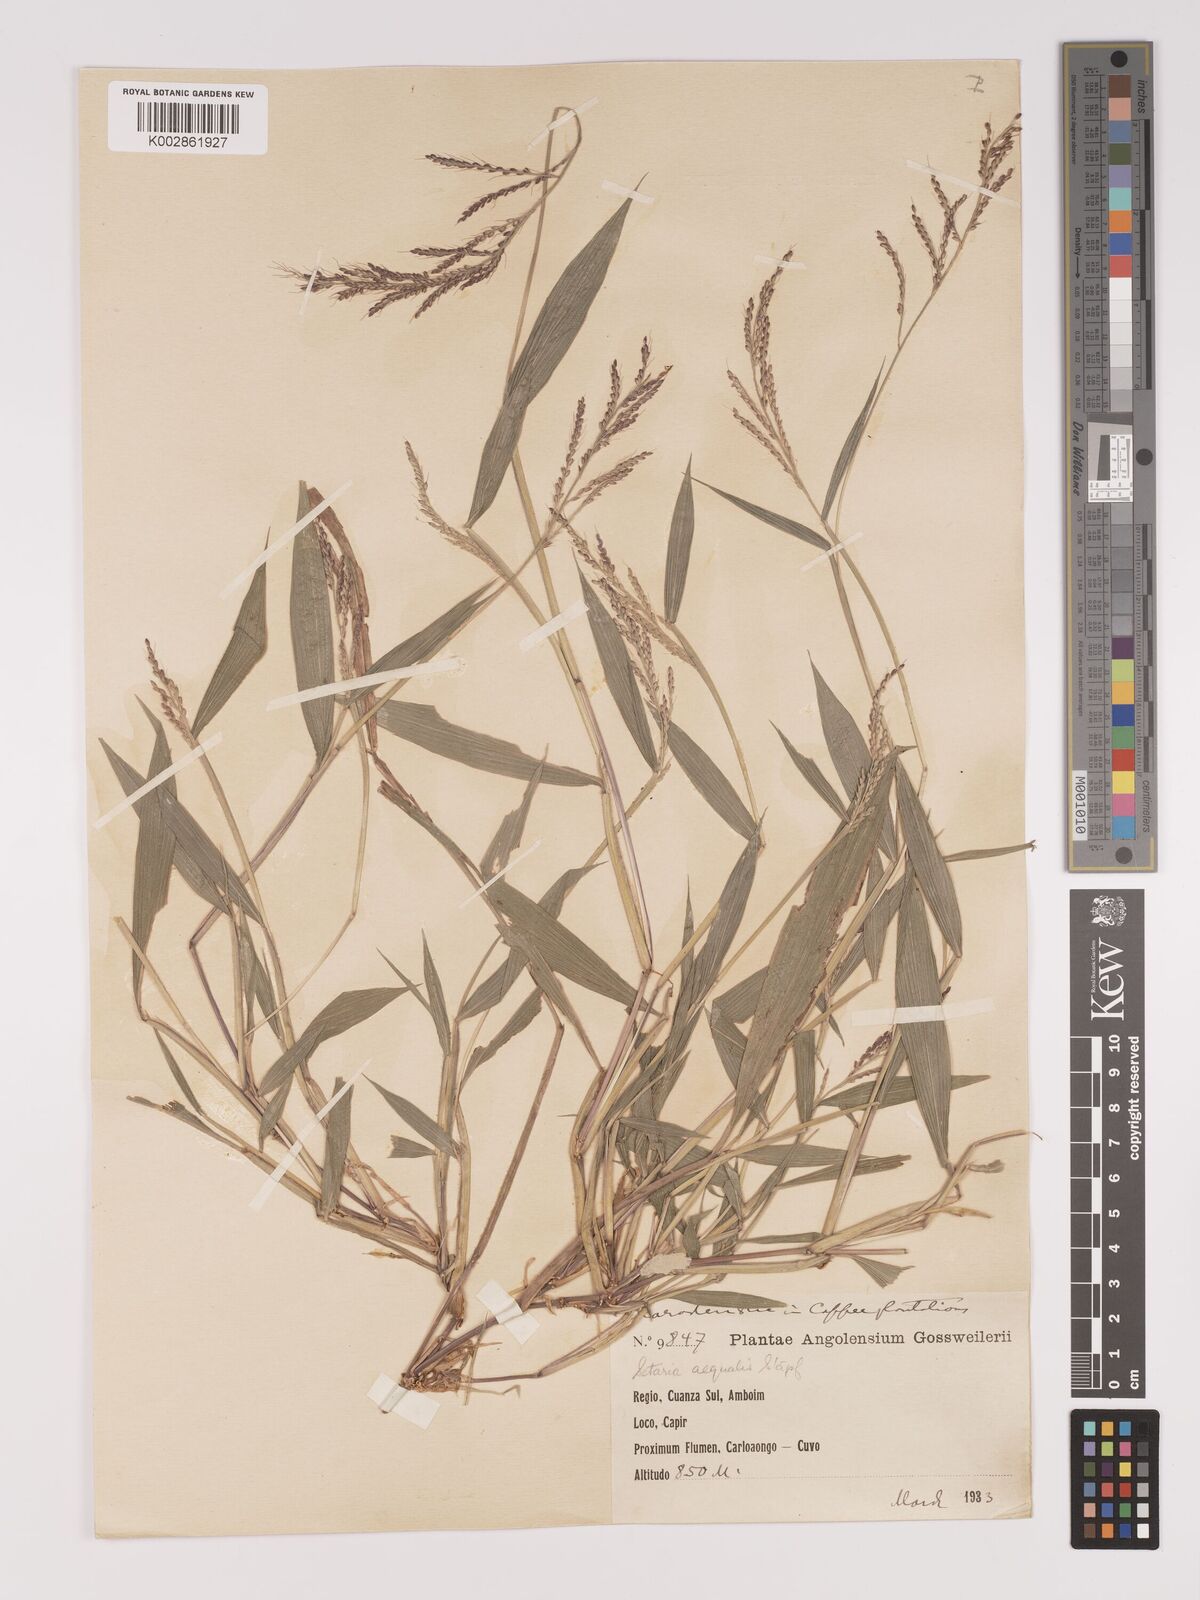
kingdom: Plantae
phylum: Tracheophyta
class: Liliopsida
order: Poales
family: Poaceae
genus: Setaria
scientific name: Setaria homonyma
